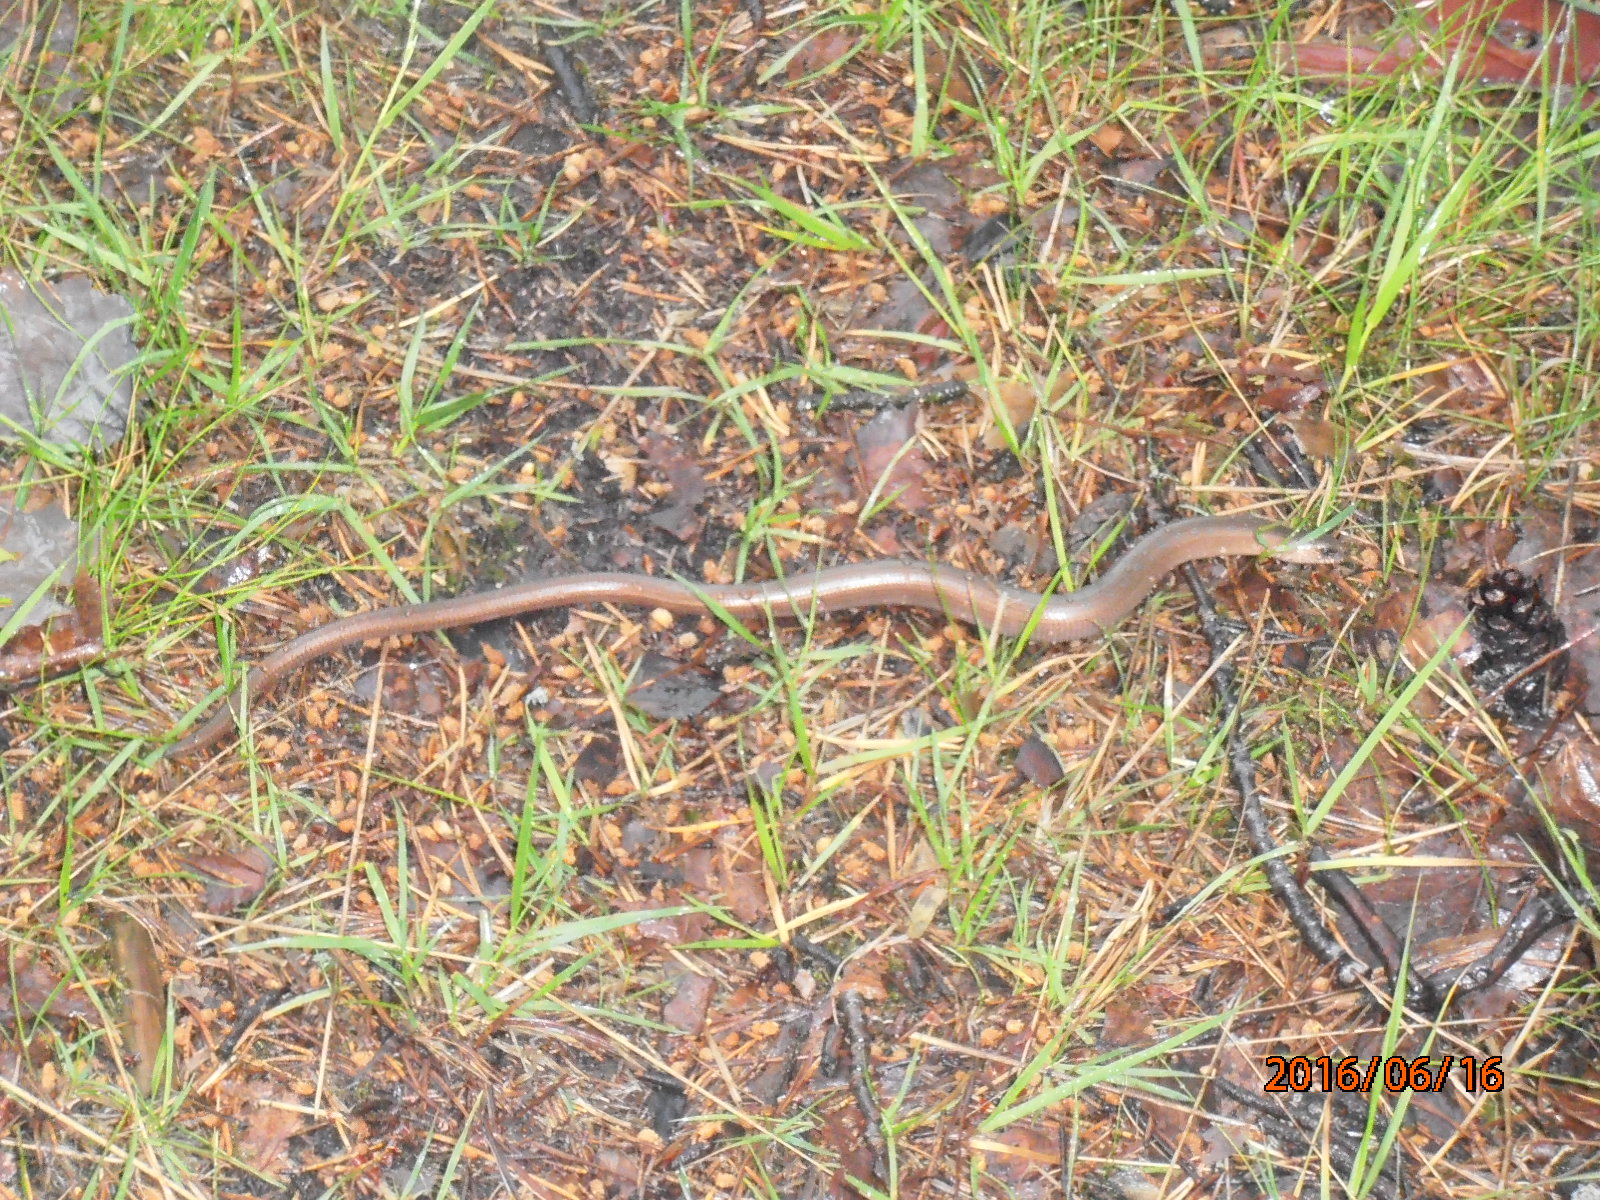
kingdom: Animalia
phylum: Chordata
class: Squamata
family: Anguidae
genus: Anguis
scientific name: Anguis colchica
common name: Slow worm
